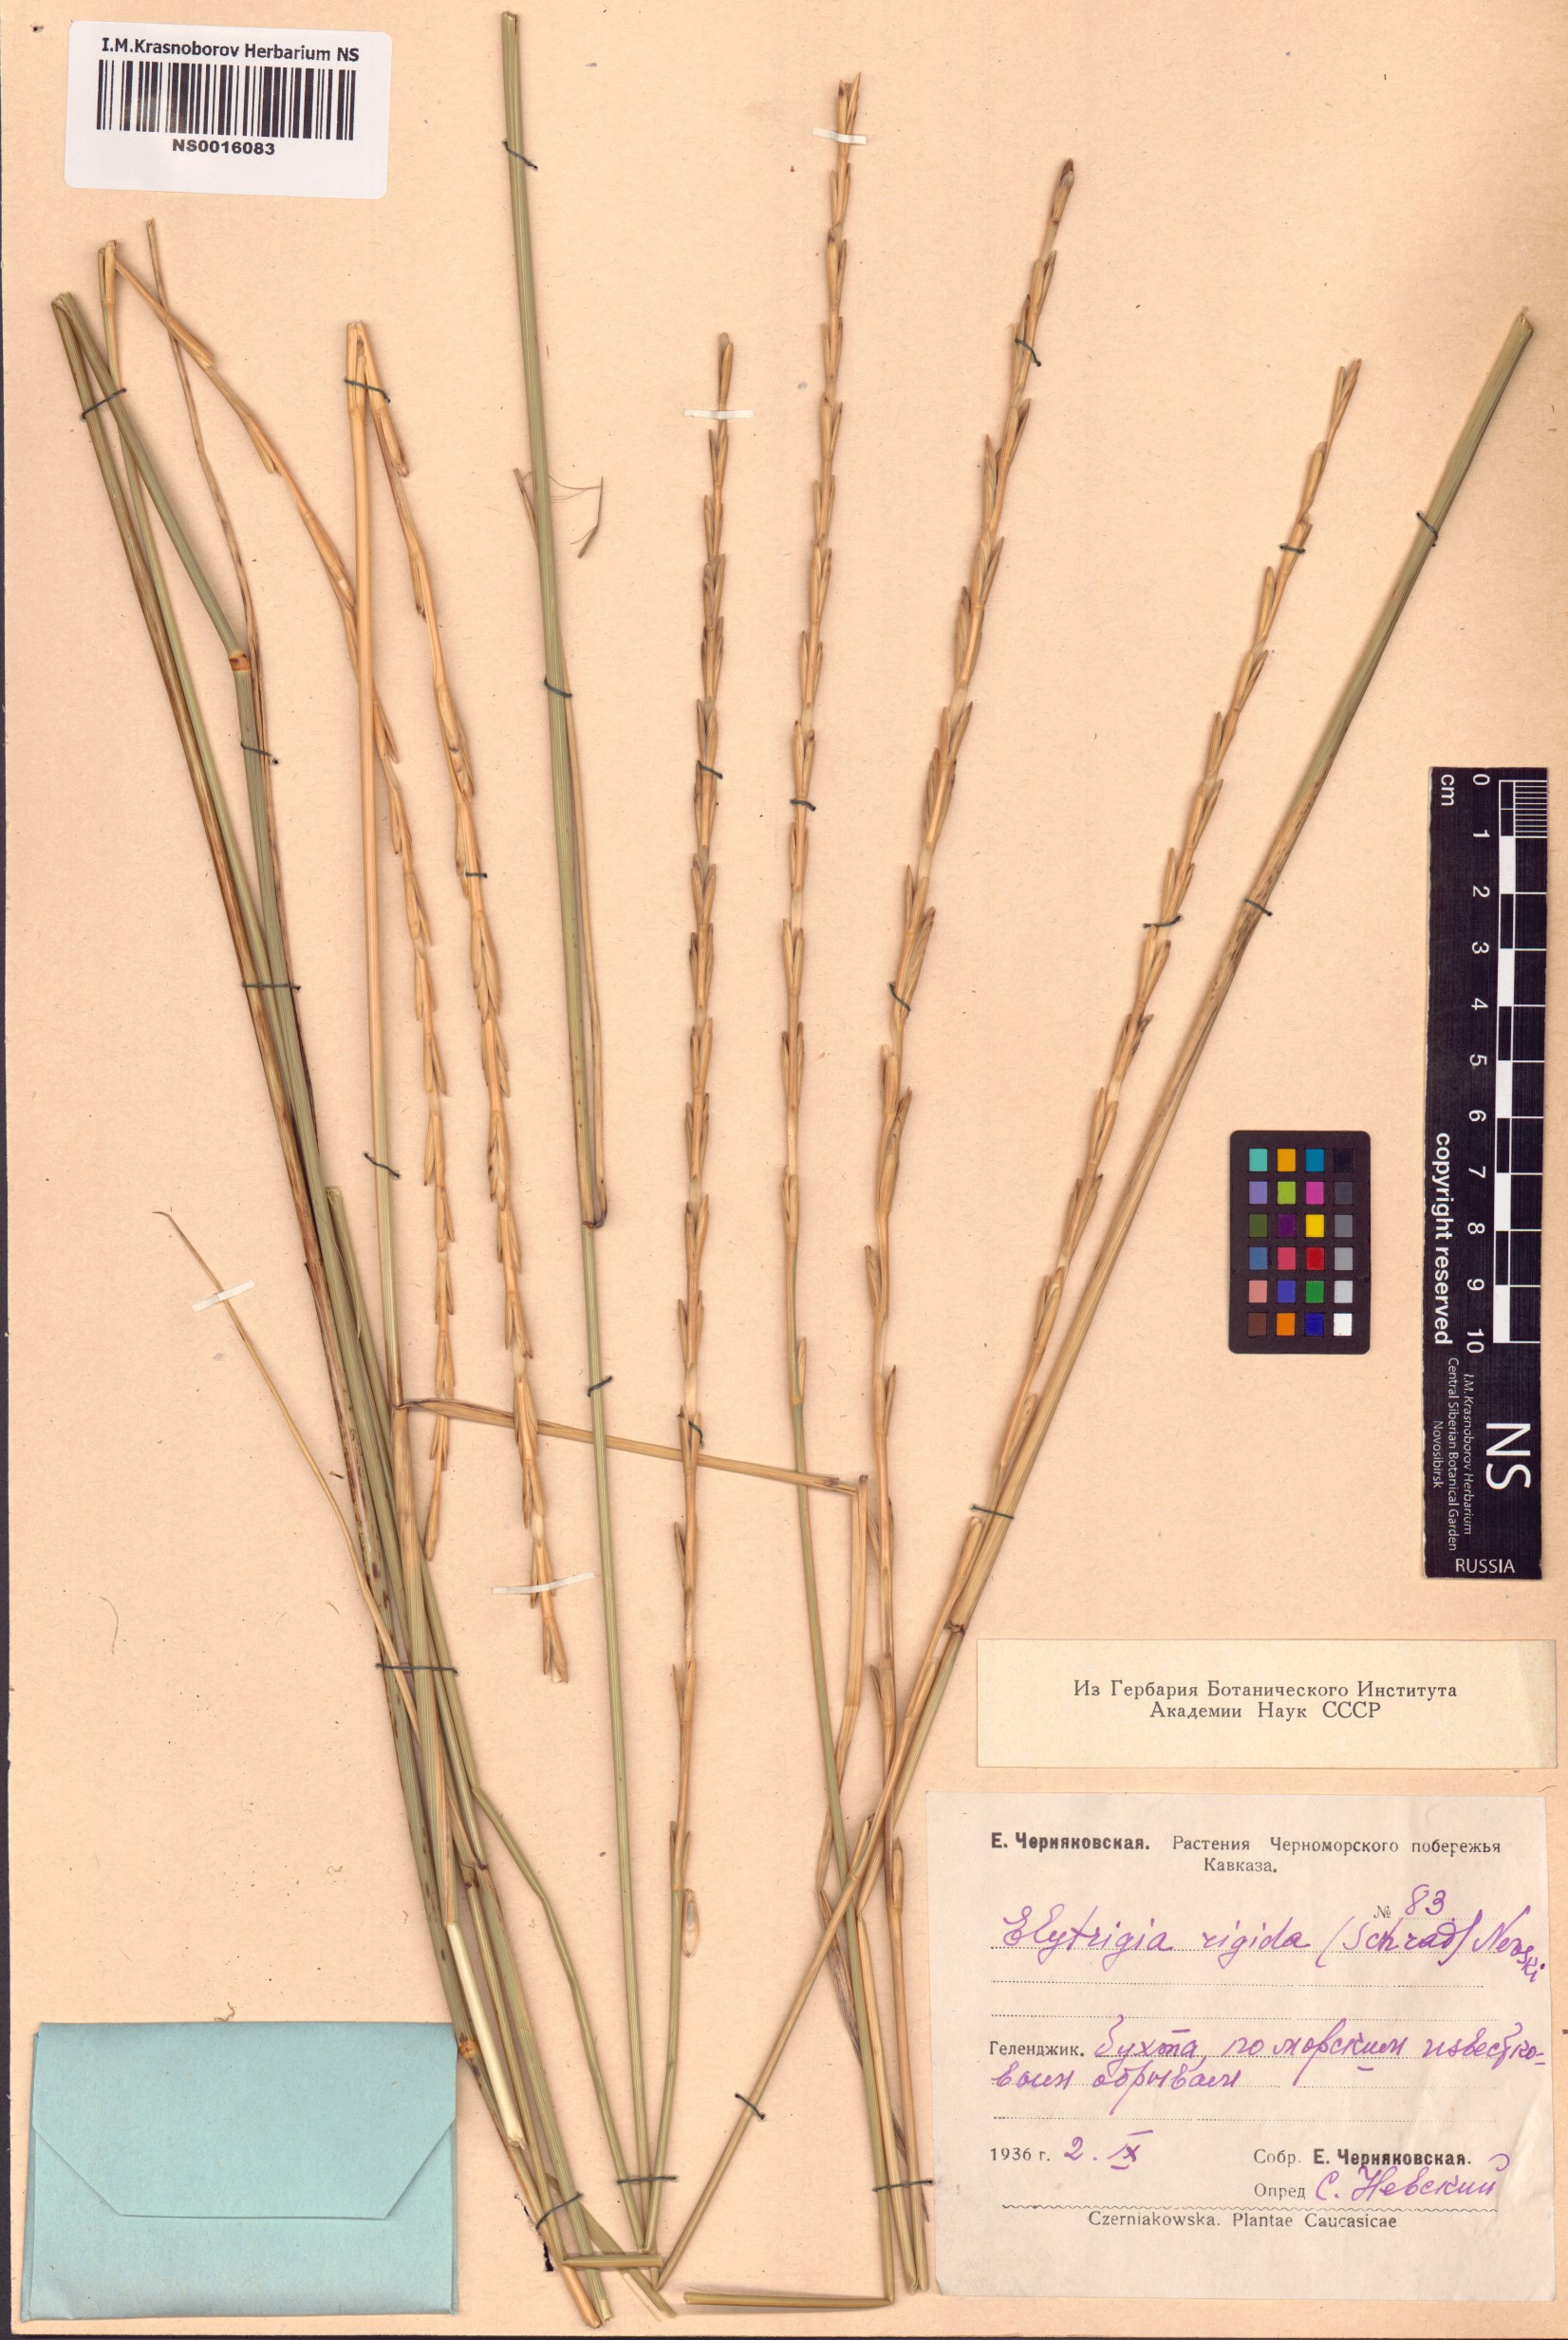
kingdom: Plantae
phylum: Tracheophyta
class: Liliopsida
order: Poales
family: Poaceae
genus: Thinopyrum
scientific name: Thinopyrum elongatum
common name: Tall wheatgrass
